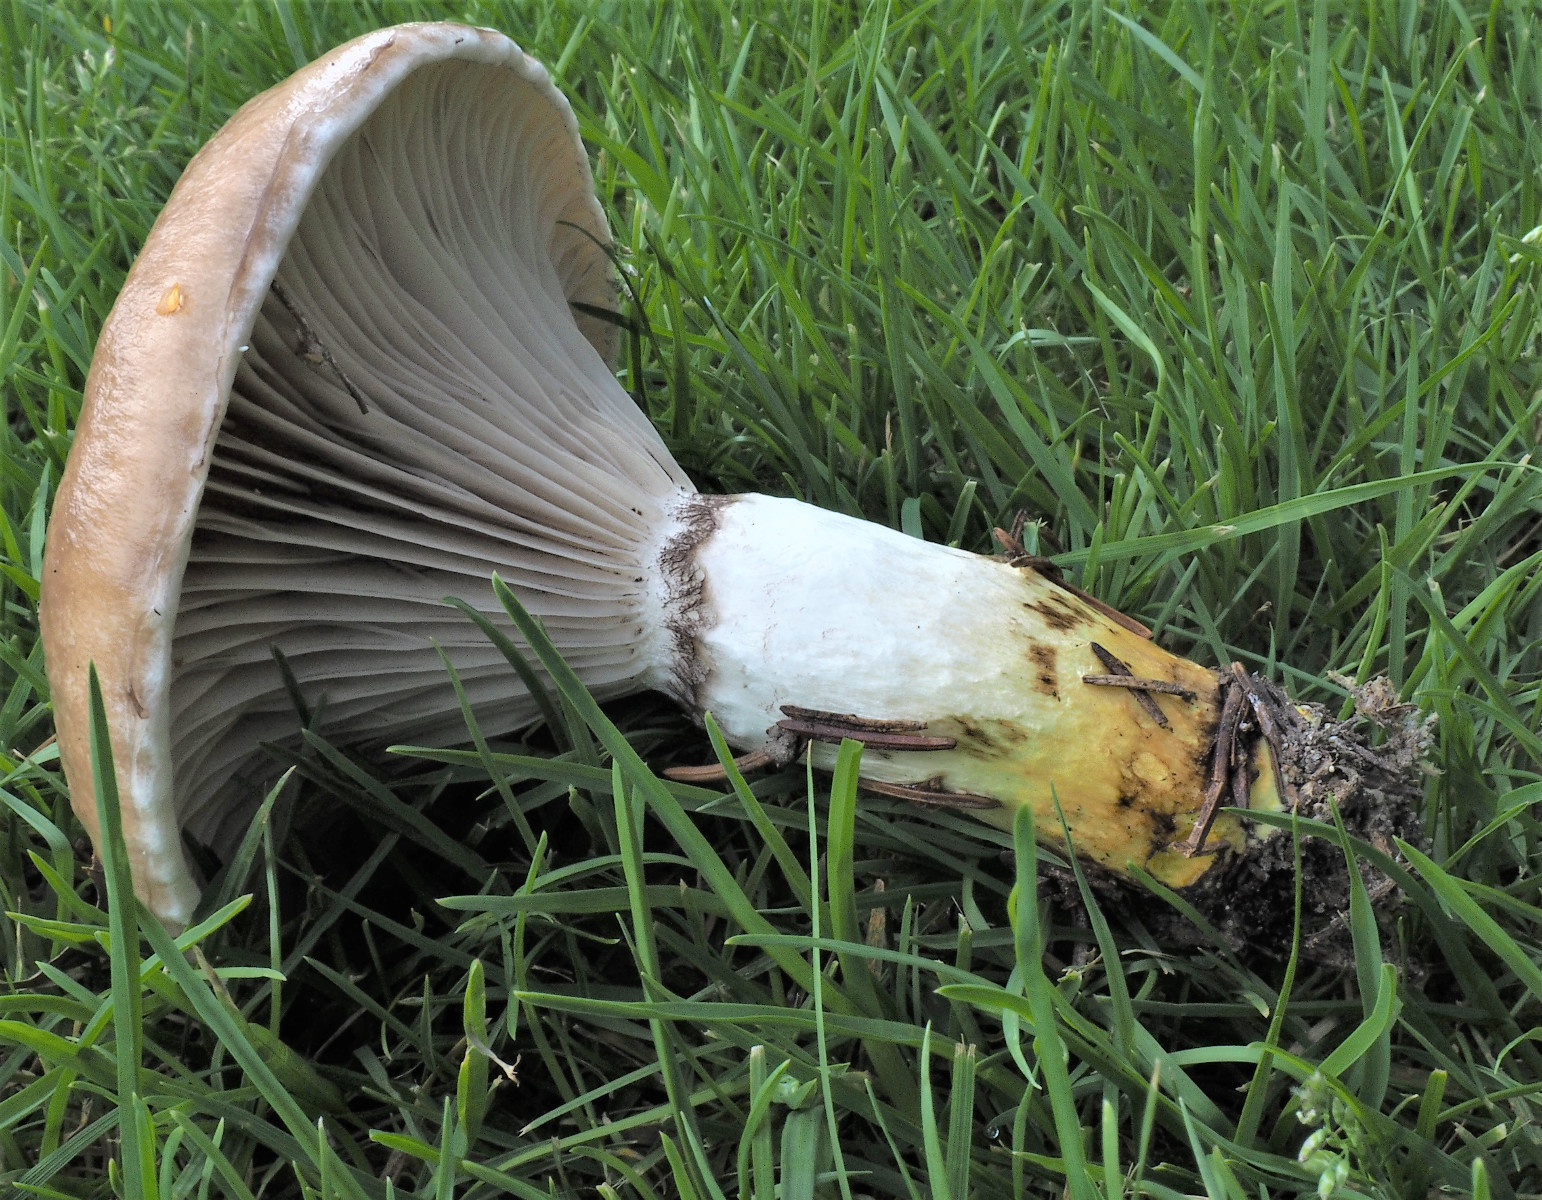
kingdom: Fungi
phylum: Basidiomycota
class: Agaricomycetes
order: Boletales
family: Gomphidiaceae
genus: Gomphidius
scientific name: Gomphidius glutinosus
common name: grå slimslør
